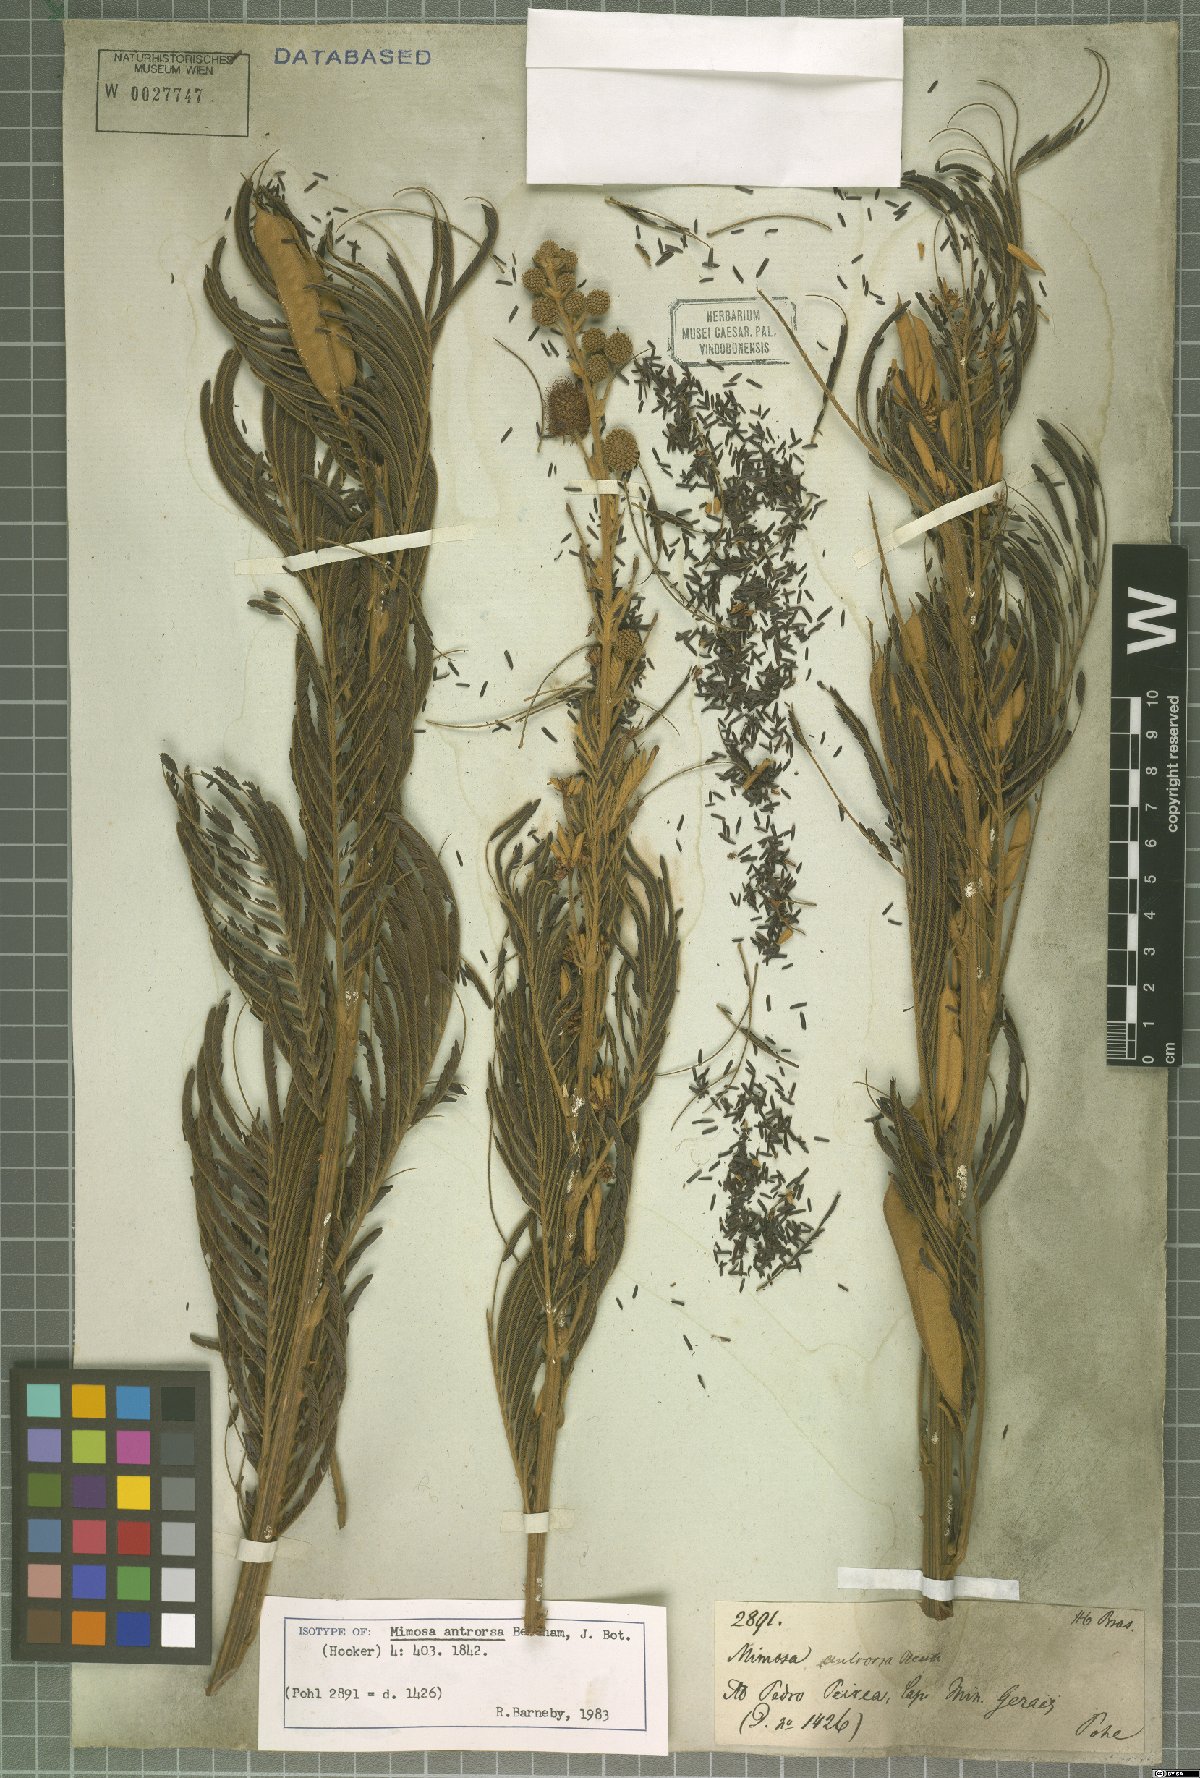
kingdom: Plantae
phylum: Tracheophyta
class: Magnoliopsida
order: Fabales
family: Fabaceae
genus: Mimosa
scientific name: Mimosa antrorsa
